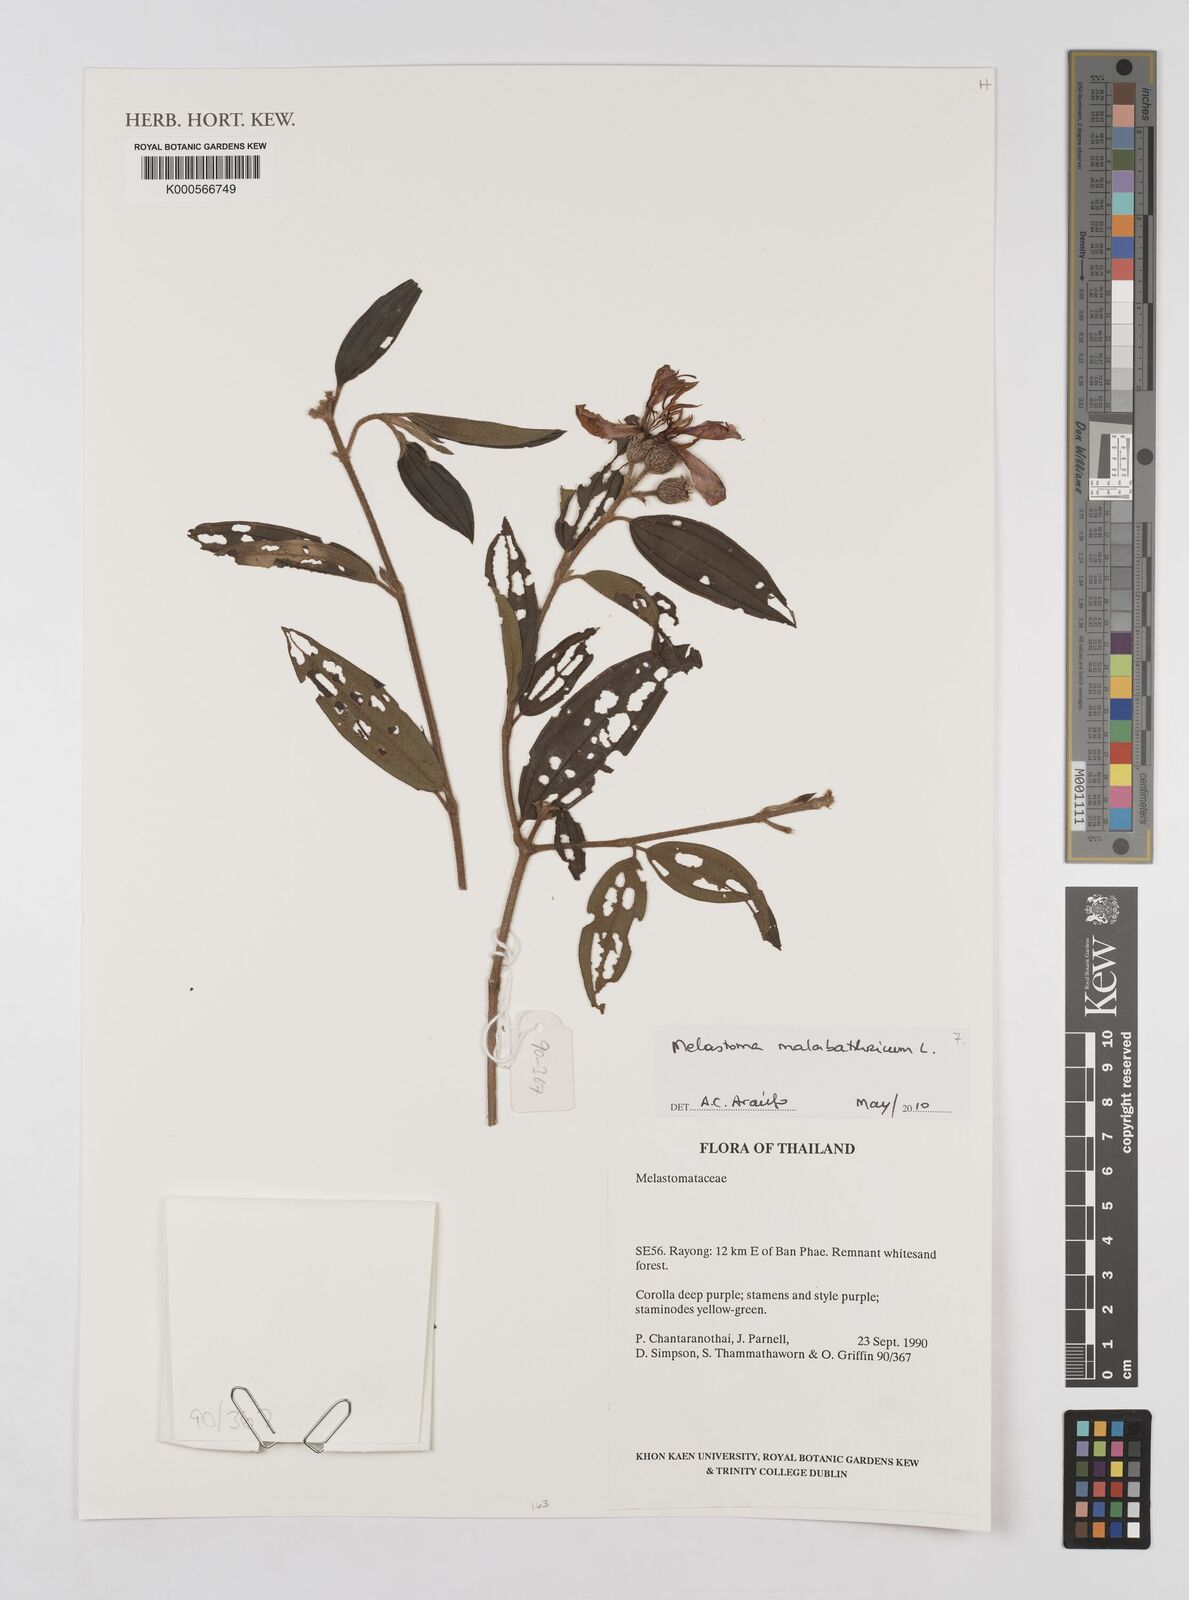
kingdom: Plantae
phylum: Tracheophyta
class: Magnoliopsida
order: Myrtales
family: Melastomataceae
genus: Melastoma
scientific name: Melastoma malabathricum
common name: Indian-rhododendron
